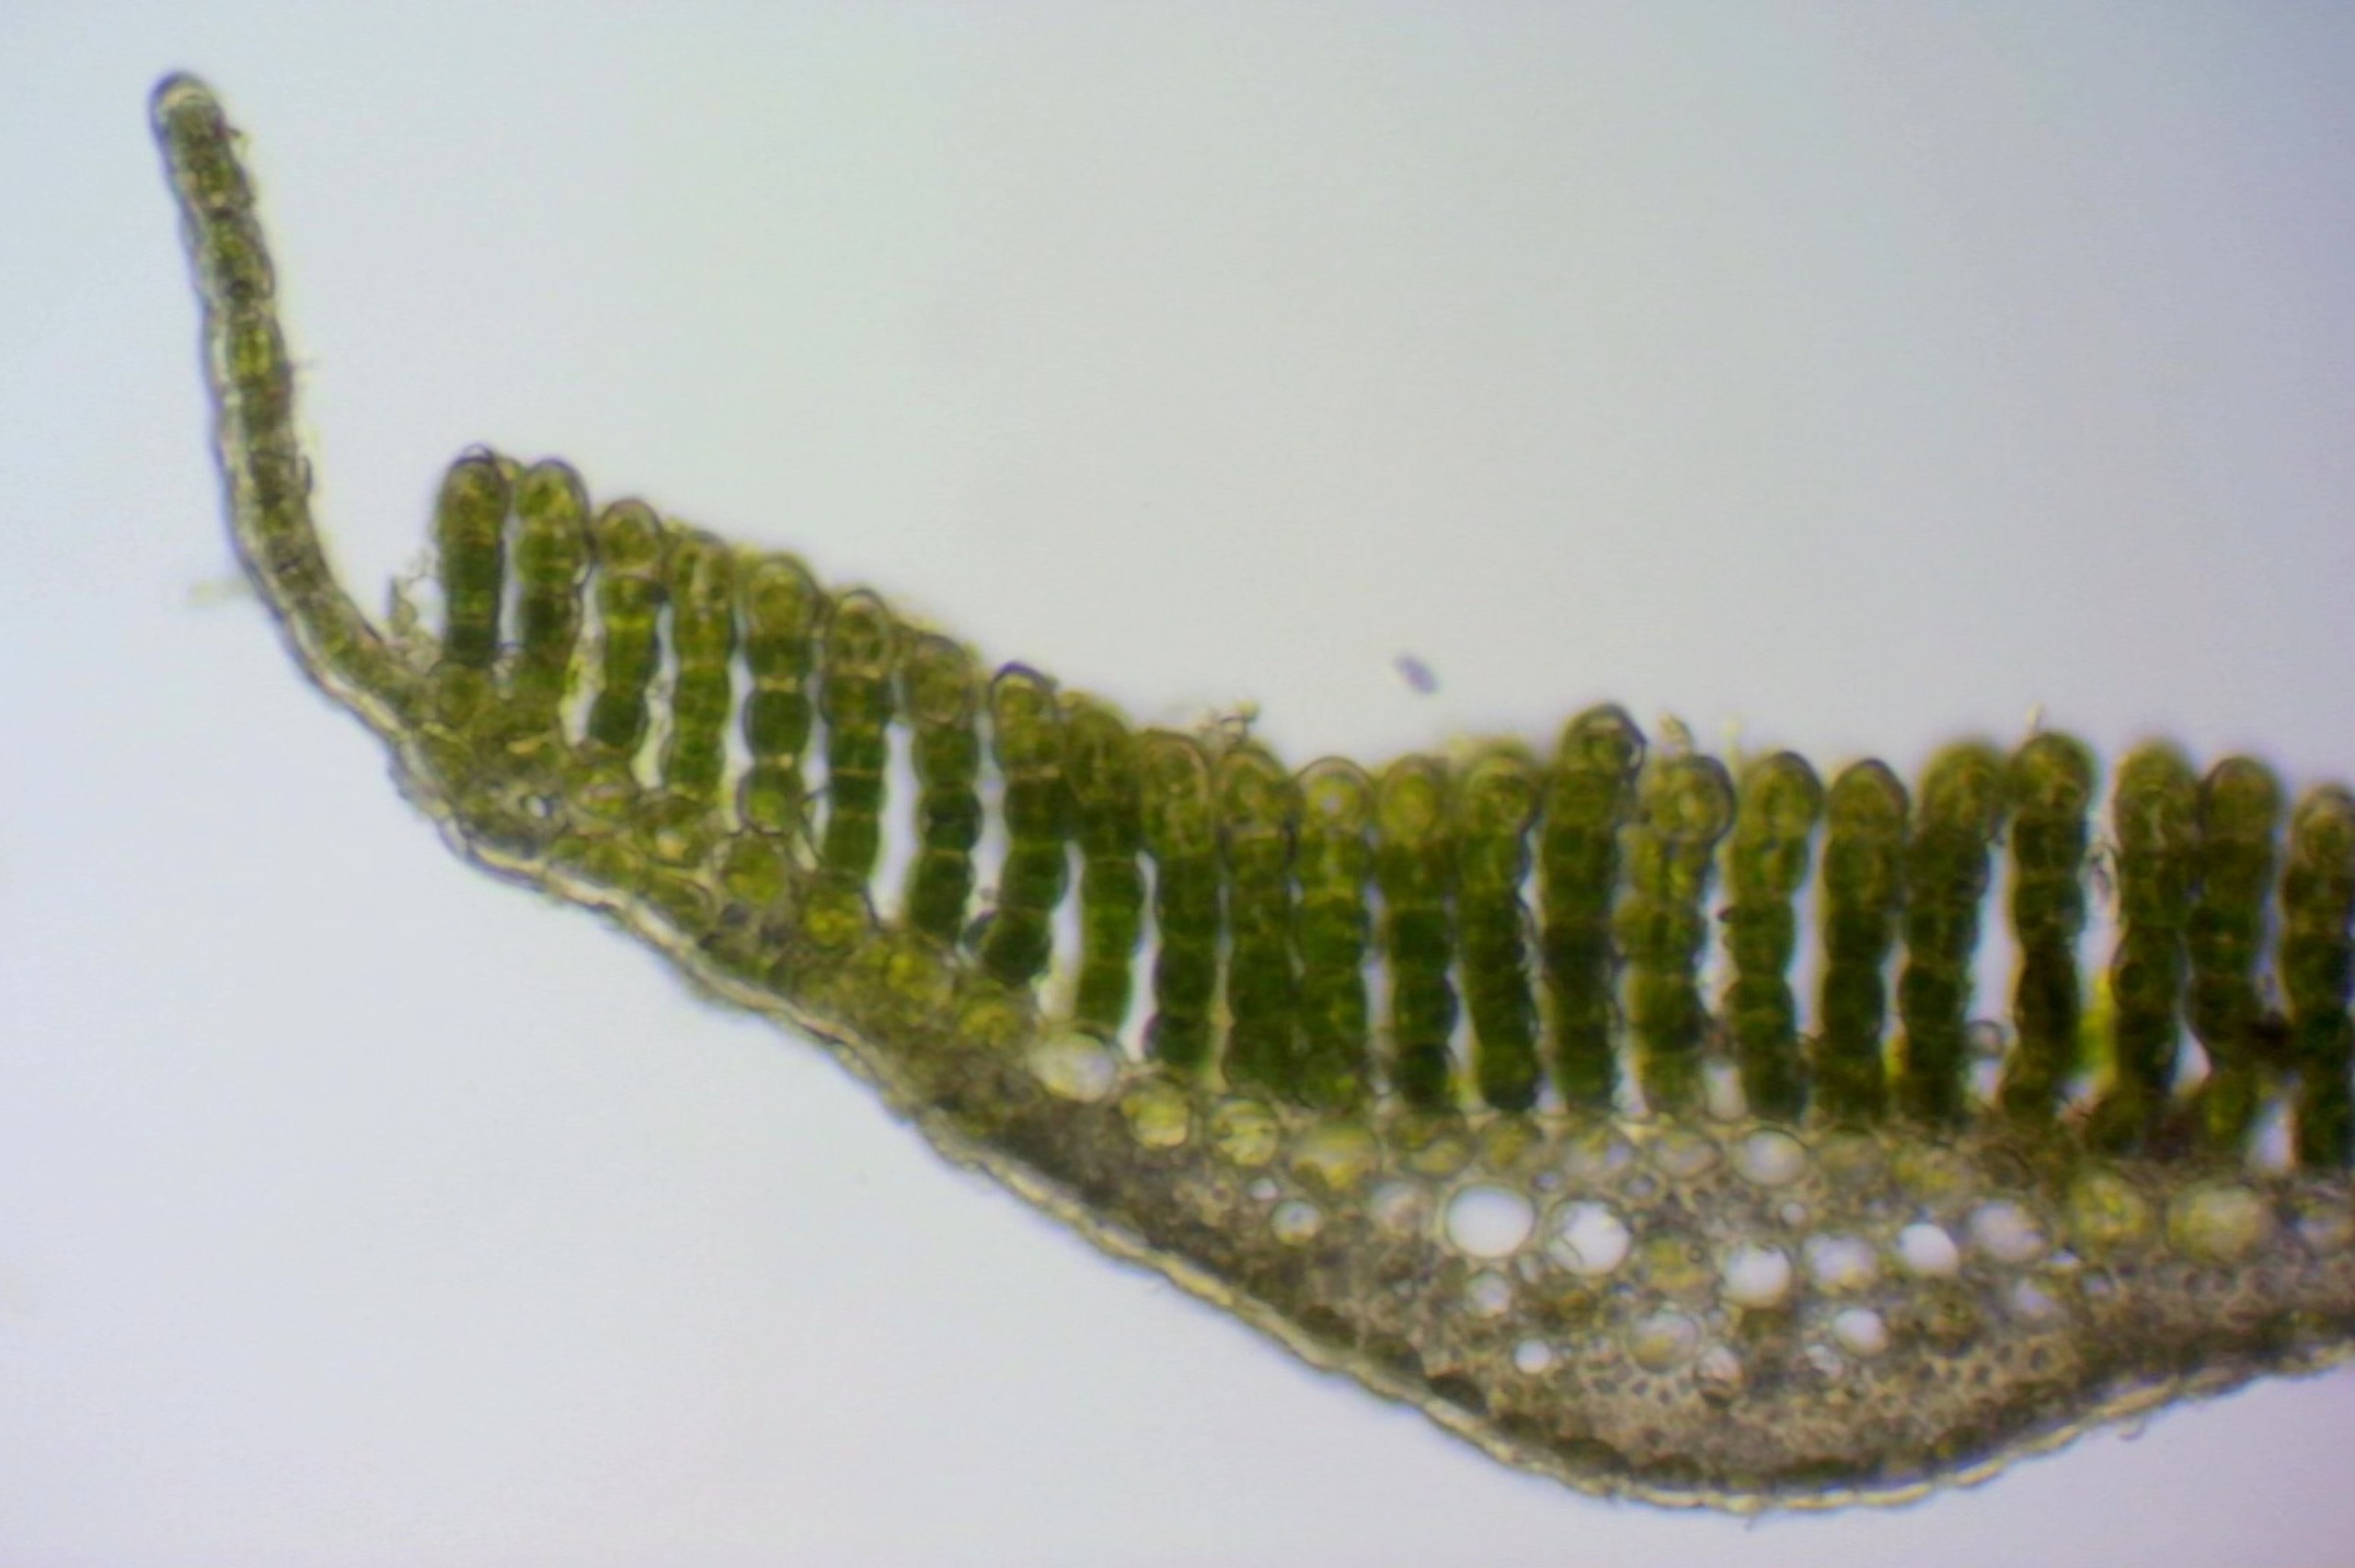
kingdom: Plantae
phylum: Bryophyta
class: Polytrichopsida
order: Polytrichales
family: Polytrichaceae
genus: Polytrichum
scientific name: Polytrichum longisetum
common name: Mose-jomfruhår
